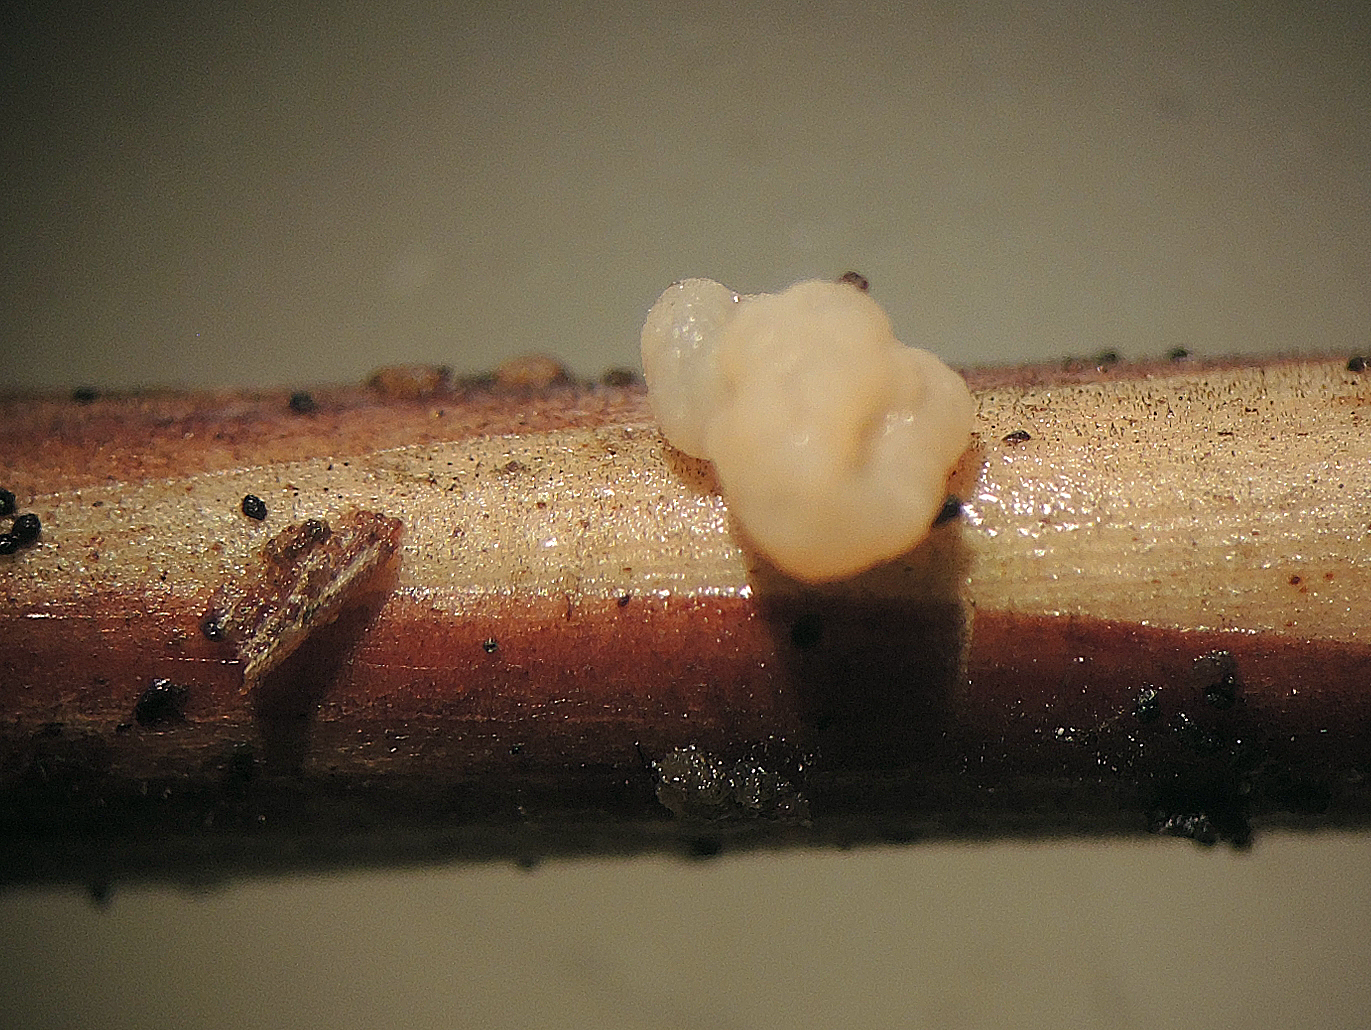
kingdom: Fungi
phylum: Basidiomycota
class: Tremellomycetes
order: Tremellales
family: Rhynchogastremaceae
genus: Tetragoniomyces
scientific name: Tetragoniomyces uliginosus
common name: sklerotie-snyltehjerne
